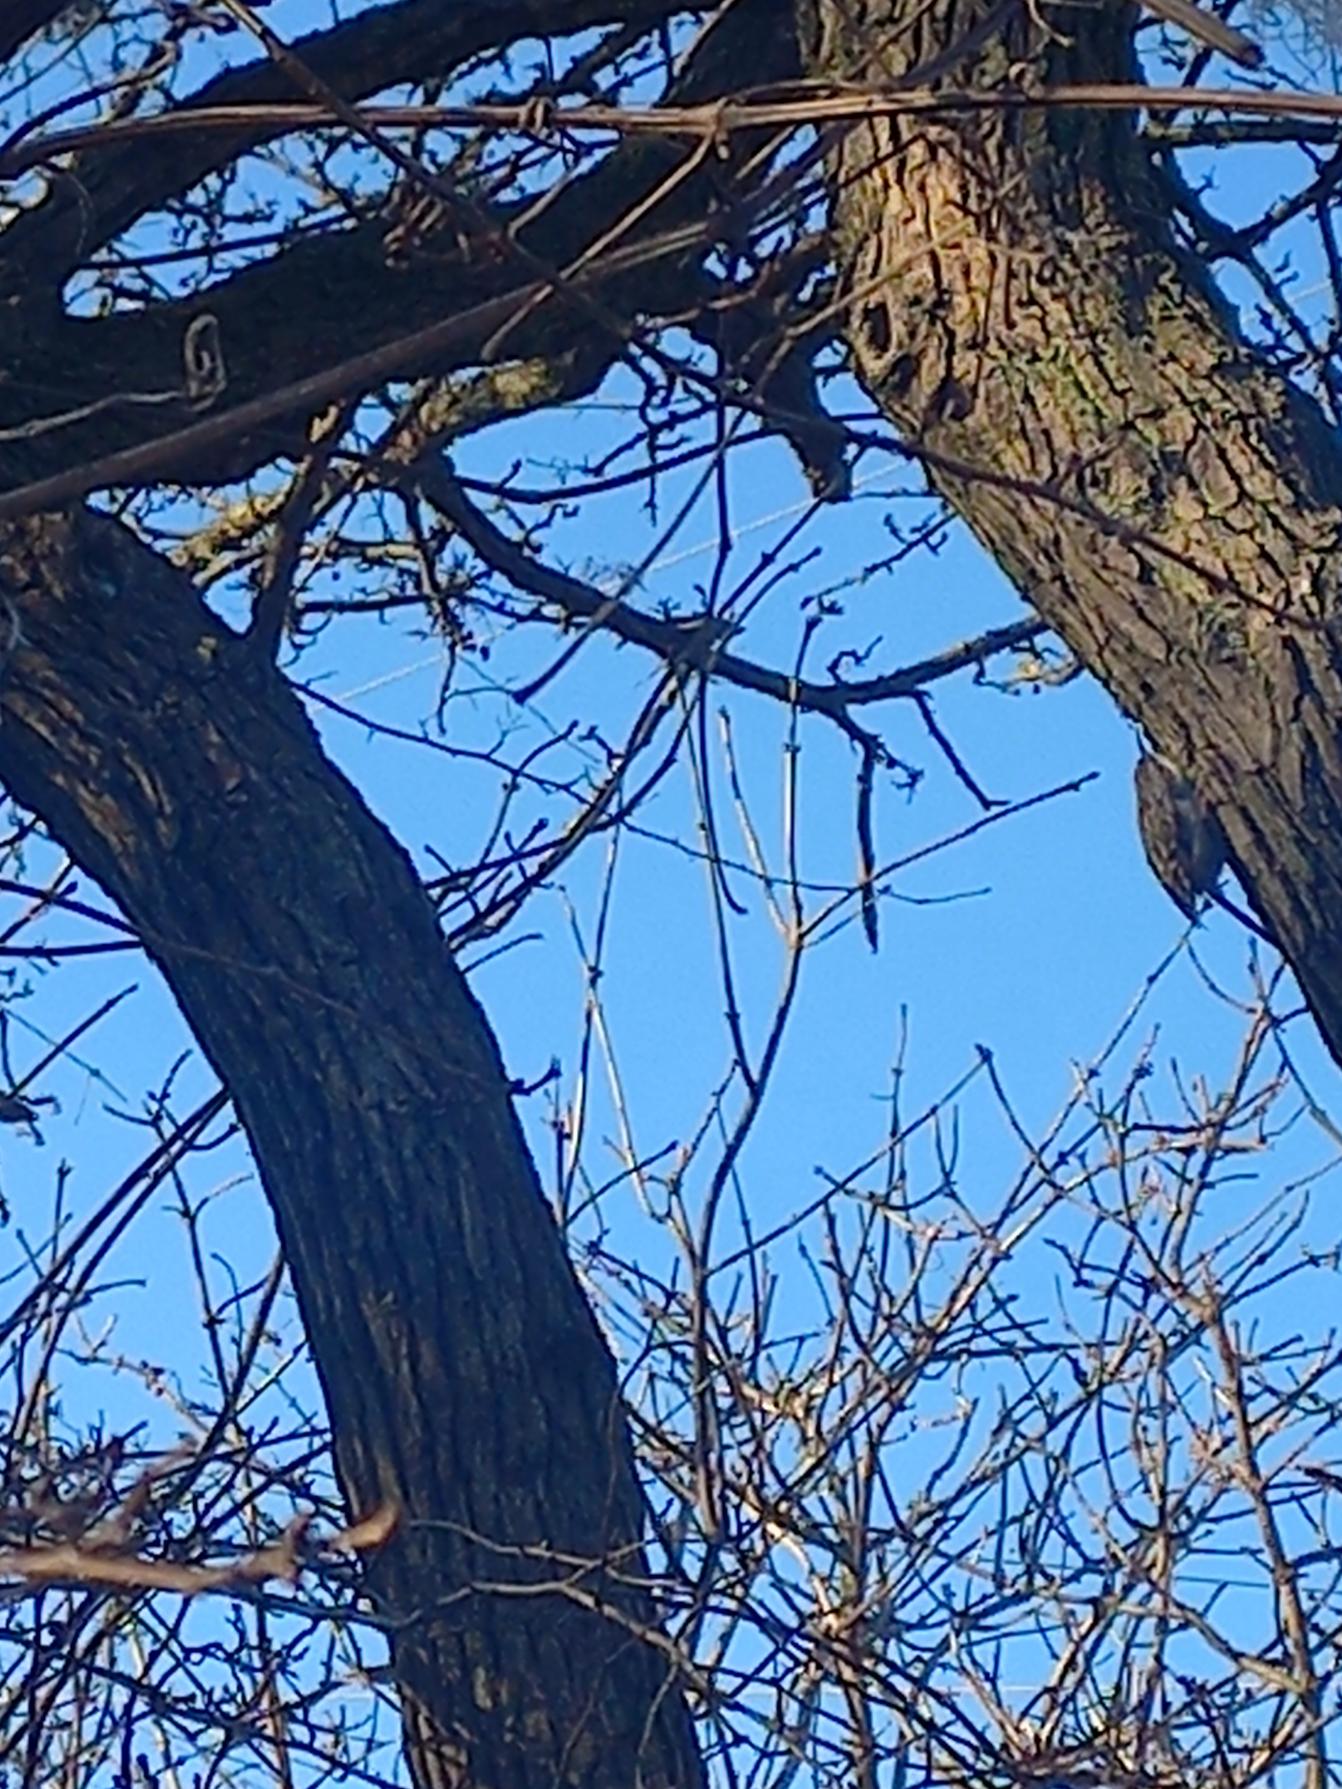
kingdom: Animalia
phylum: Chordata
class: Aves
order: Passeriformes
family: Certhiidae
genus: Certhia
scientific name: Certhia brachydactyla
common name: Korttået træløber
